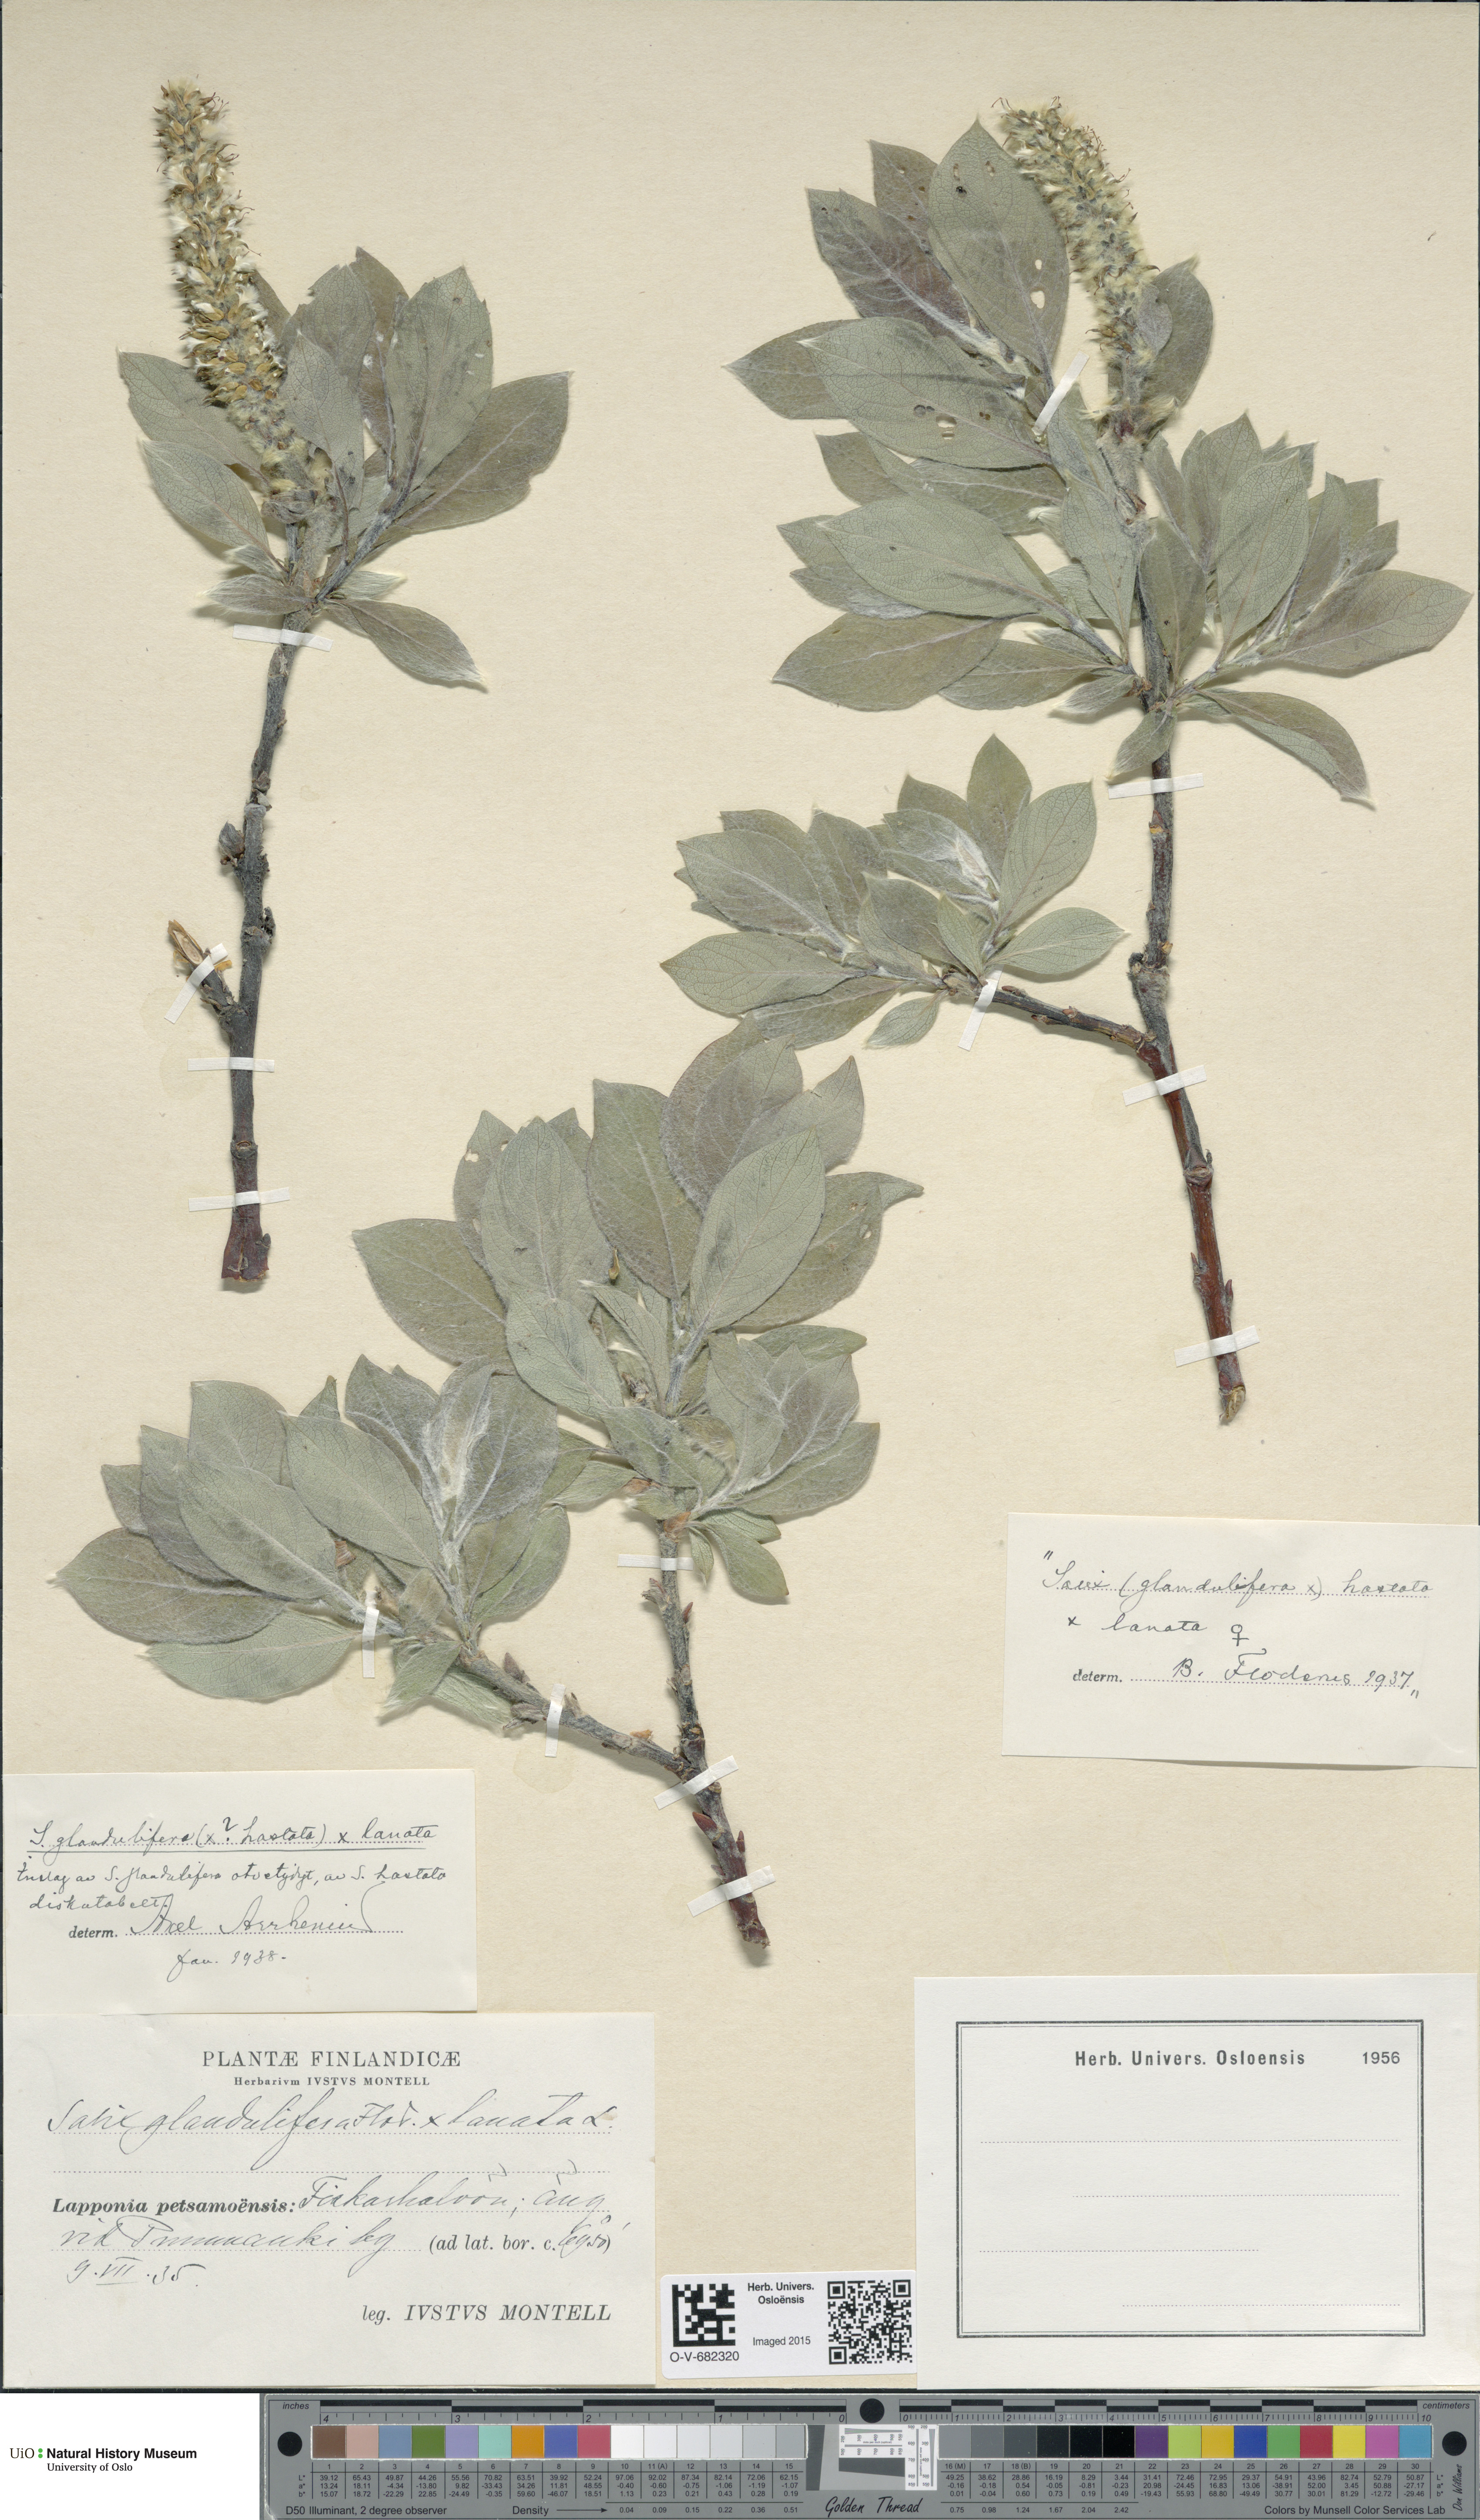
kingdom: Plantae
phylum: Tracheophyta
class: Magnoliopsida
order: Malpighiales
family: Salicaceae
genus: Salix
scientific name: Salix
